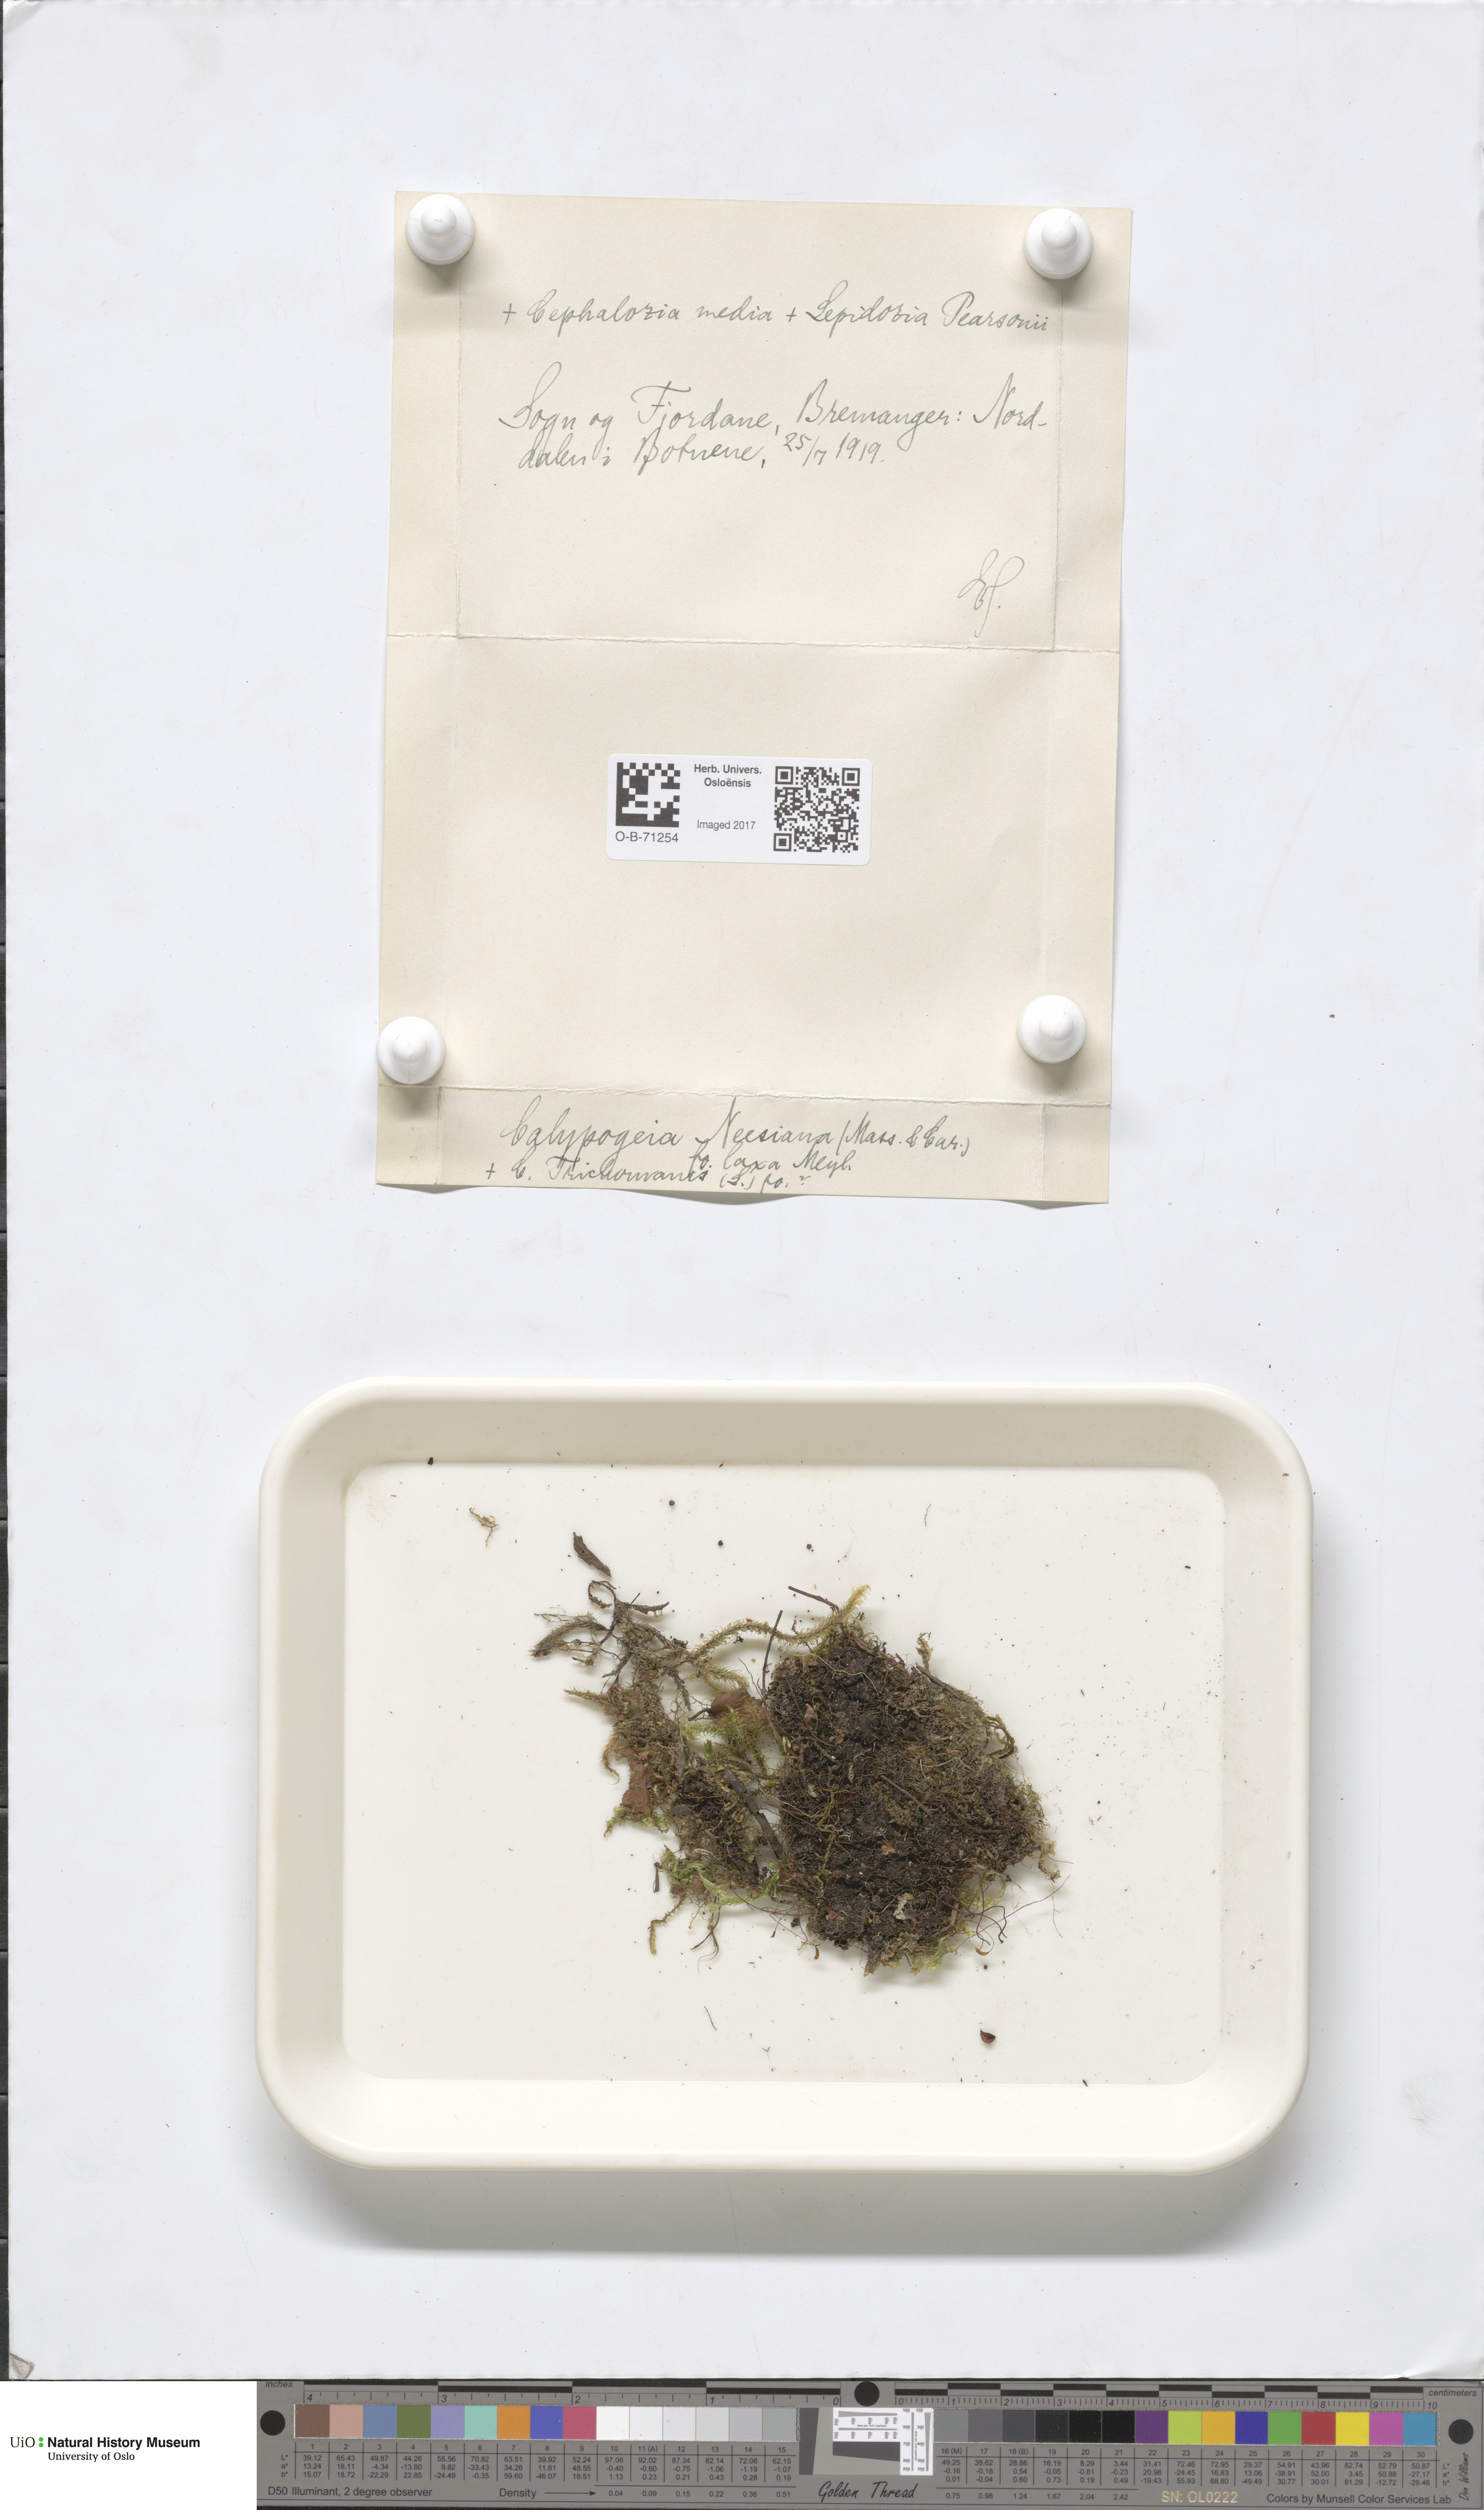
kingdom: Plantae
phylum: Marchantiophyta
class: Jungermanniopsida
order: Jungermanniales
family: Calypogeiaceae
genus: Calypogeia
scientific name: Calypogeia neesiana
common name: Nees  pouchwort
